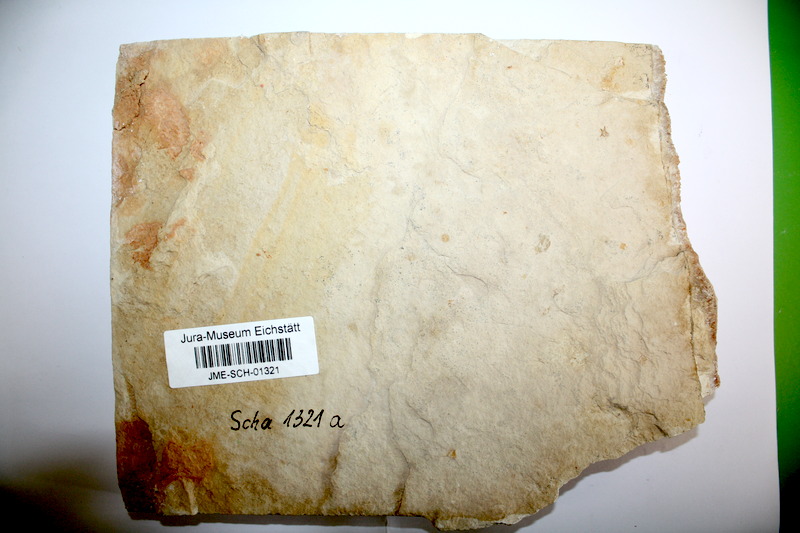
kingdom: Animalia
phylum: Chordata
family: Ascalaboidae
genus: Tharsis
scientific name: Tharsis dubius
